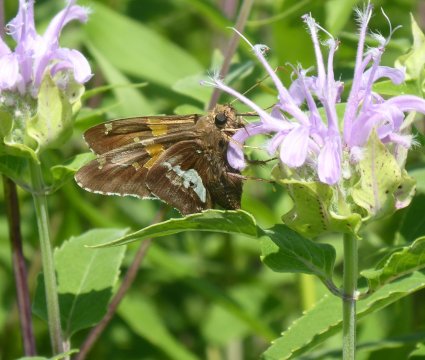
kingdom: Animalia
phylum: Arthropoda
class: Insecta
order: Lepidoptera
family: Hesperiidae
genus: Epargyreus
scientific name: Epargyreus clarus
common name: Silver-spotted Skipper
